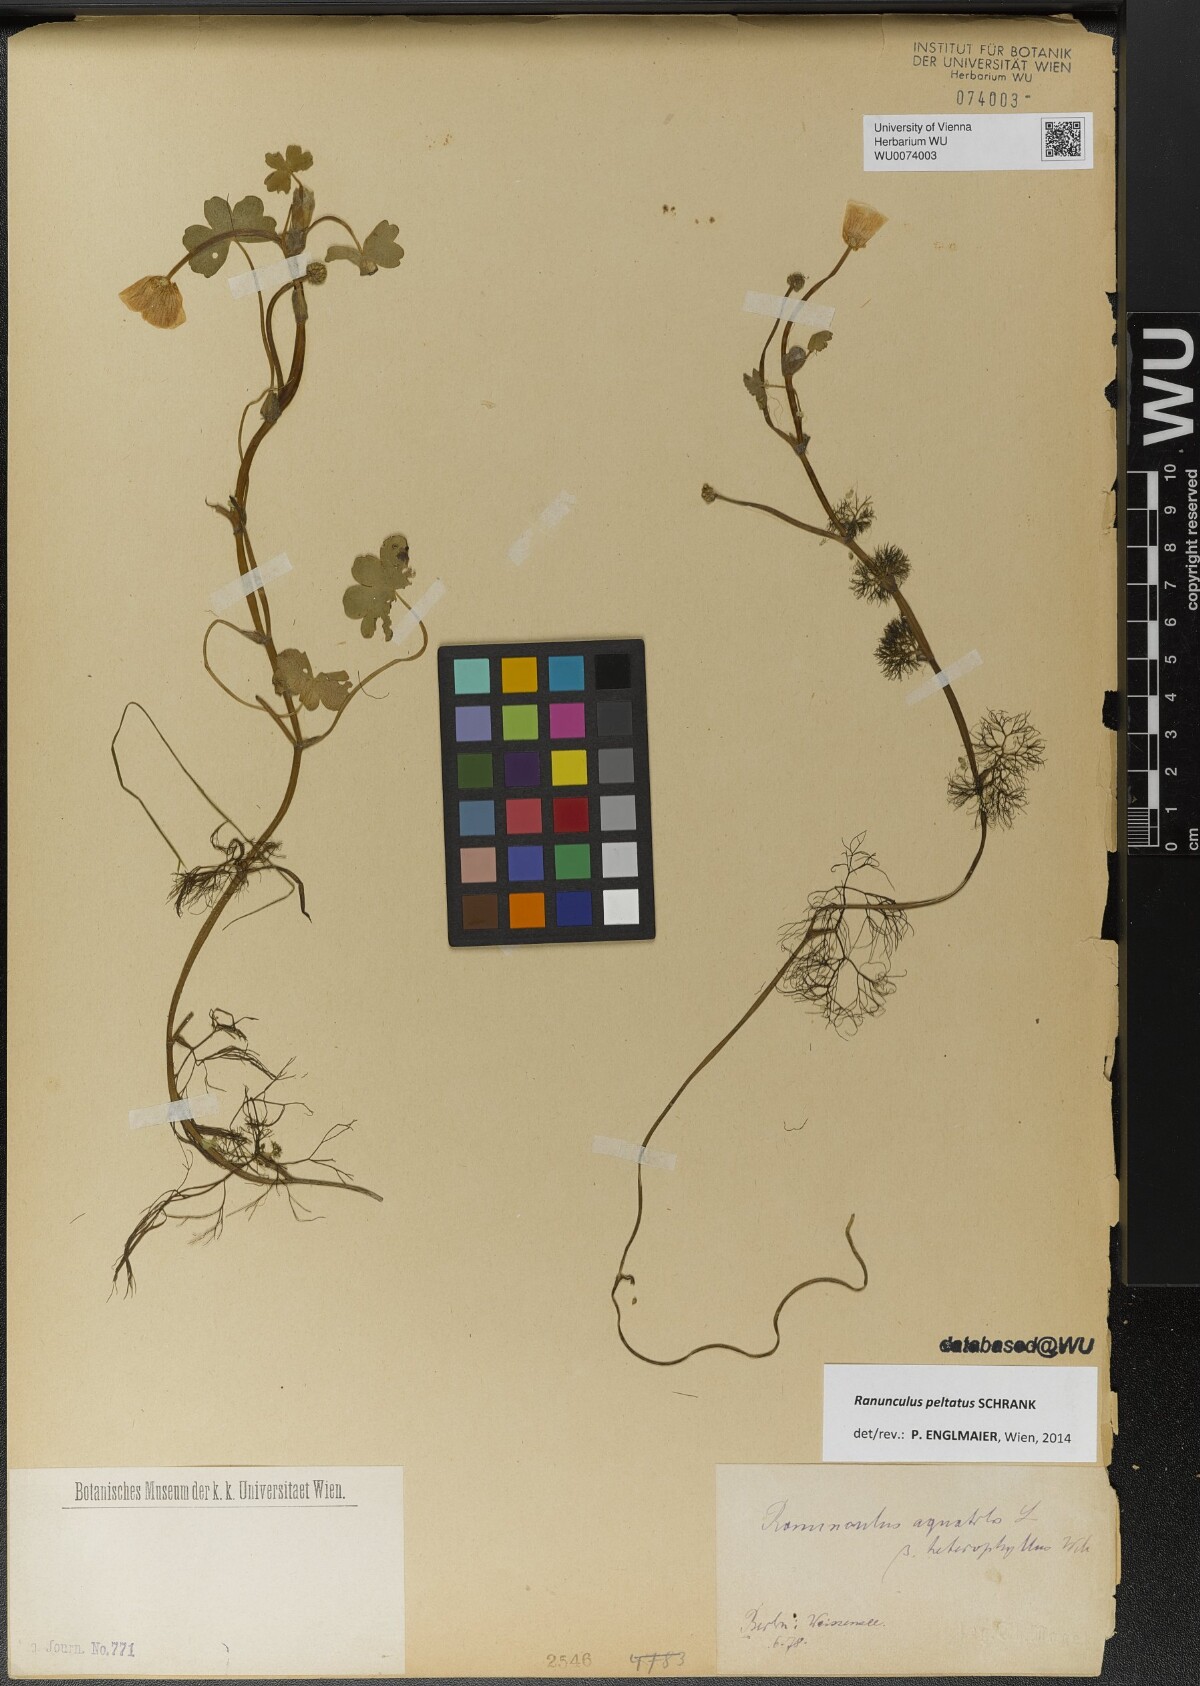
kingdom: Plantae
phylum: Tracheophyta
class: Magnoliopsida
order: Ranunculales
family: Ranunculaceae
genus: Ranunculus
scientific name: Ranunculus peltatus
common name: Pond water-crowfoot
